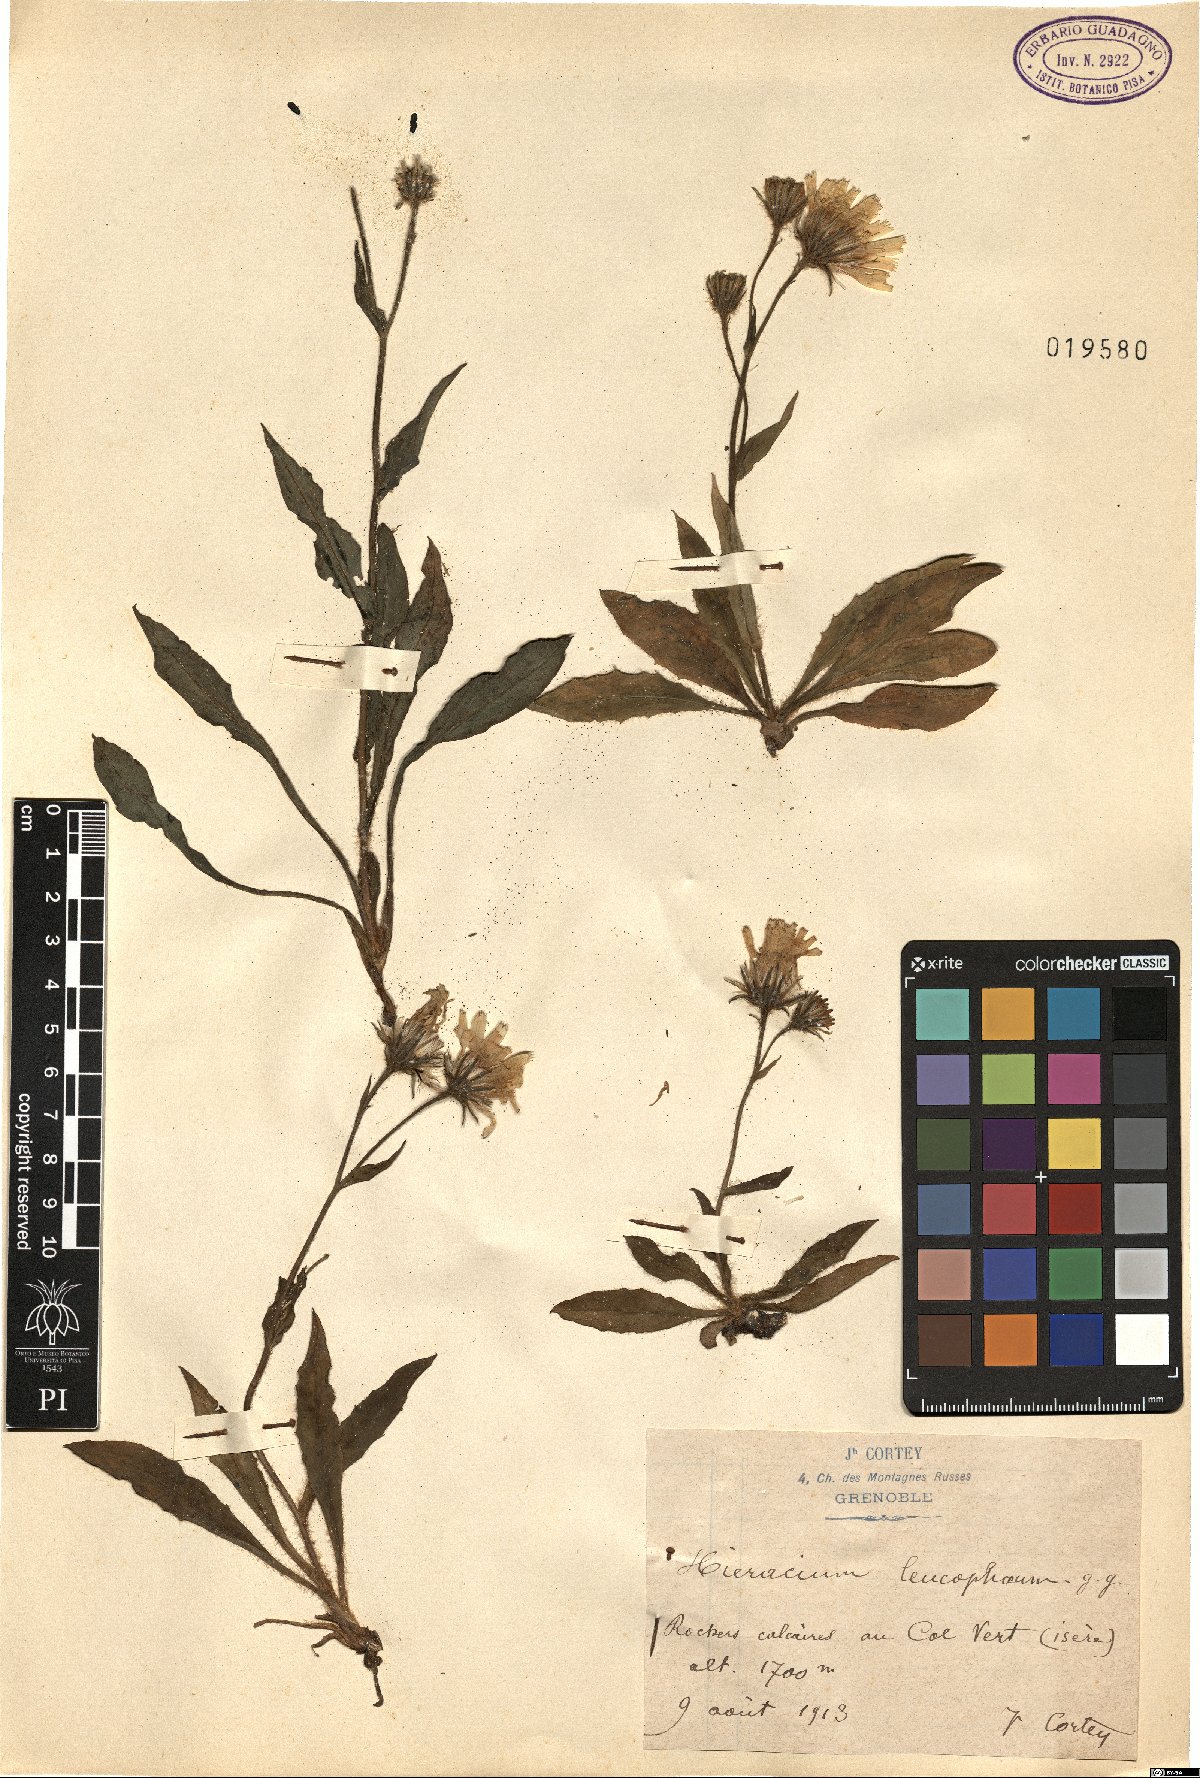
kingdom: Plantae
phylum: Tracheophyta
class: Magnoliopsida
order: Asterales
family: Asteraceae
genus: Hieracium
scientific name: Hieracium leucophaeum
